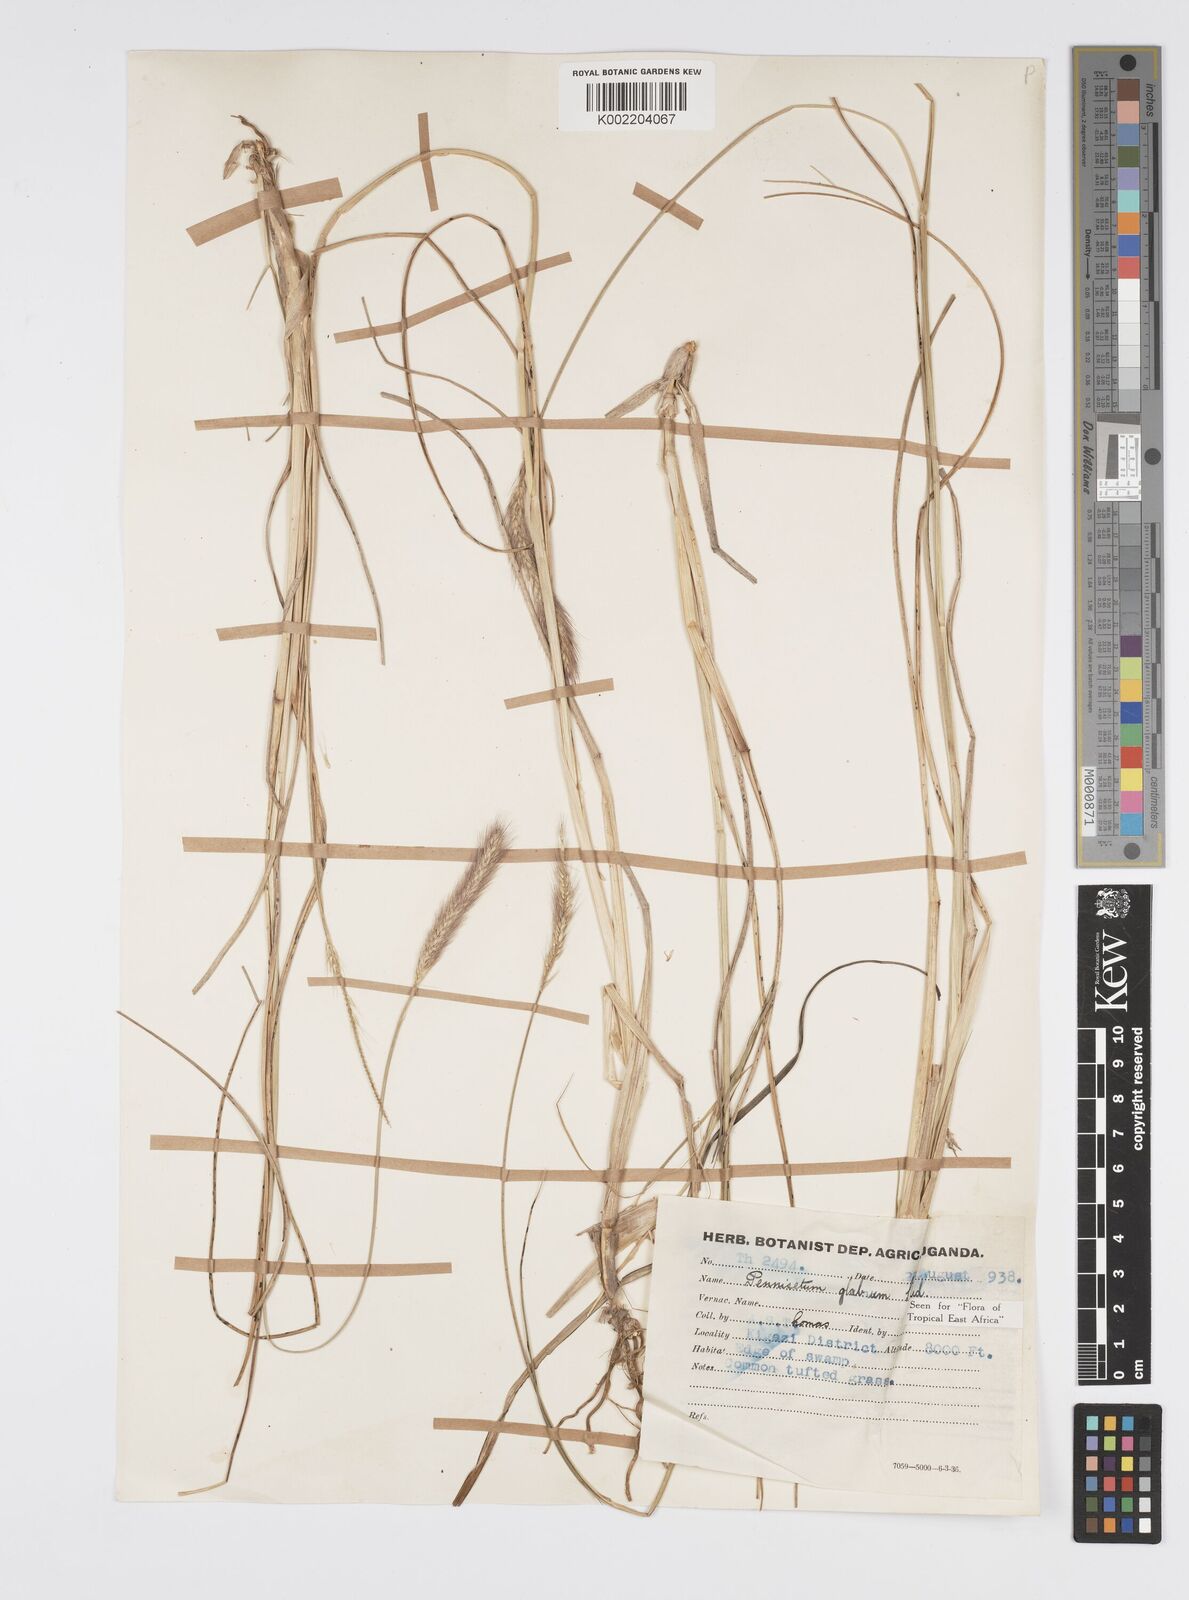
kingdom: Plantae
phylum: Tracheophyta
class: Liliopsida
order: Poales
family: Poaceae
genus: Cenchrus
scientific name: Cenchrus geniculatus
